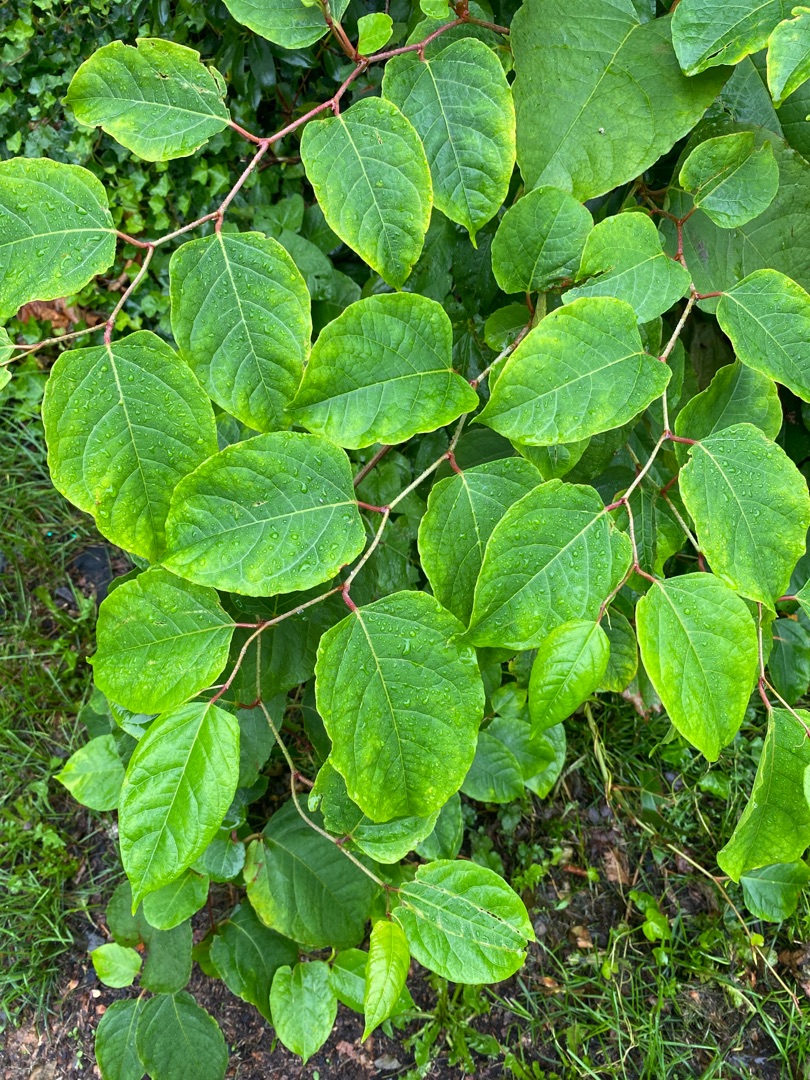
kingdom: Plantae
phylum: Tracheophyta
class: Magnoliopsida
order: Caryophyllales
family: Polygonaceae
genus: Reynoutria
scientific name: Reynoutria japonica
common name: Japan-pileurt
